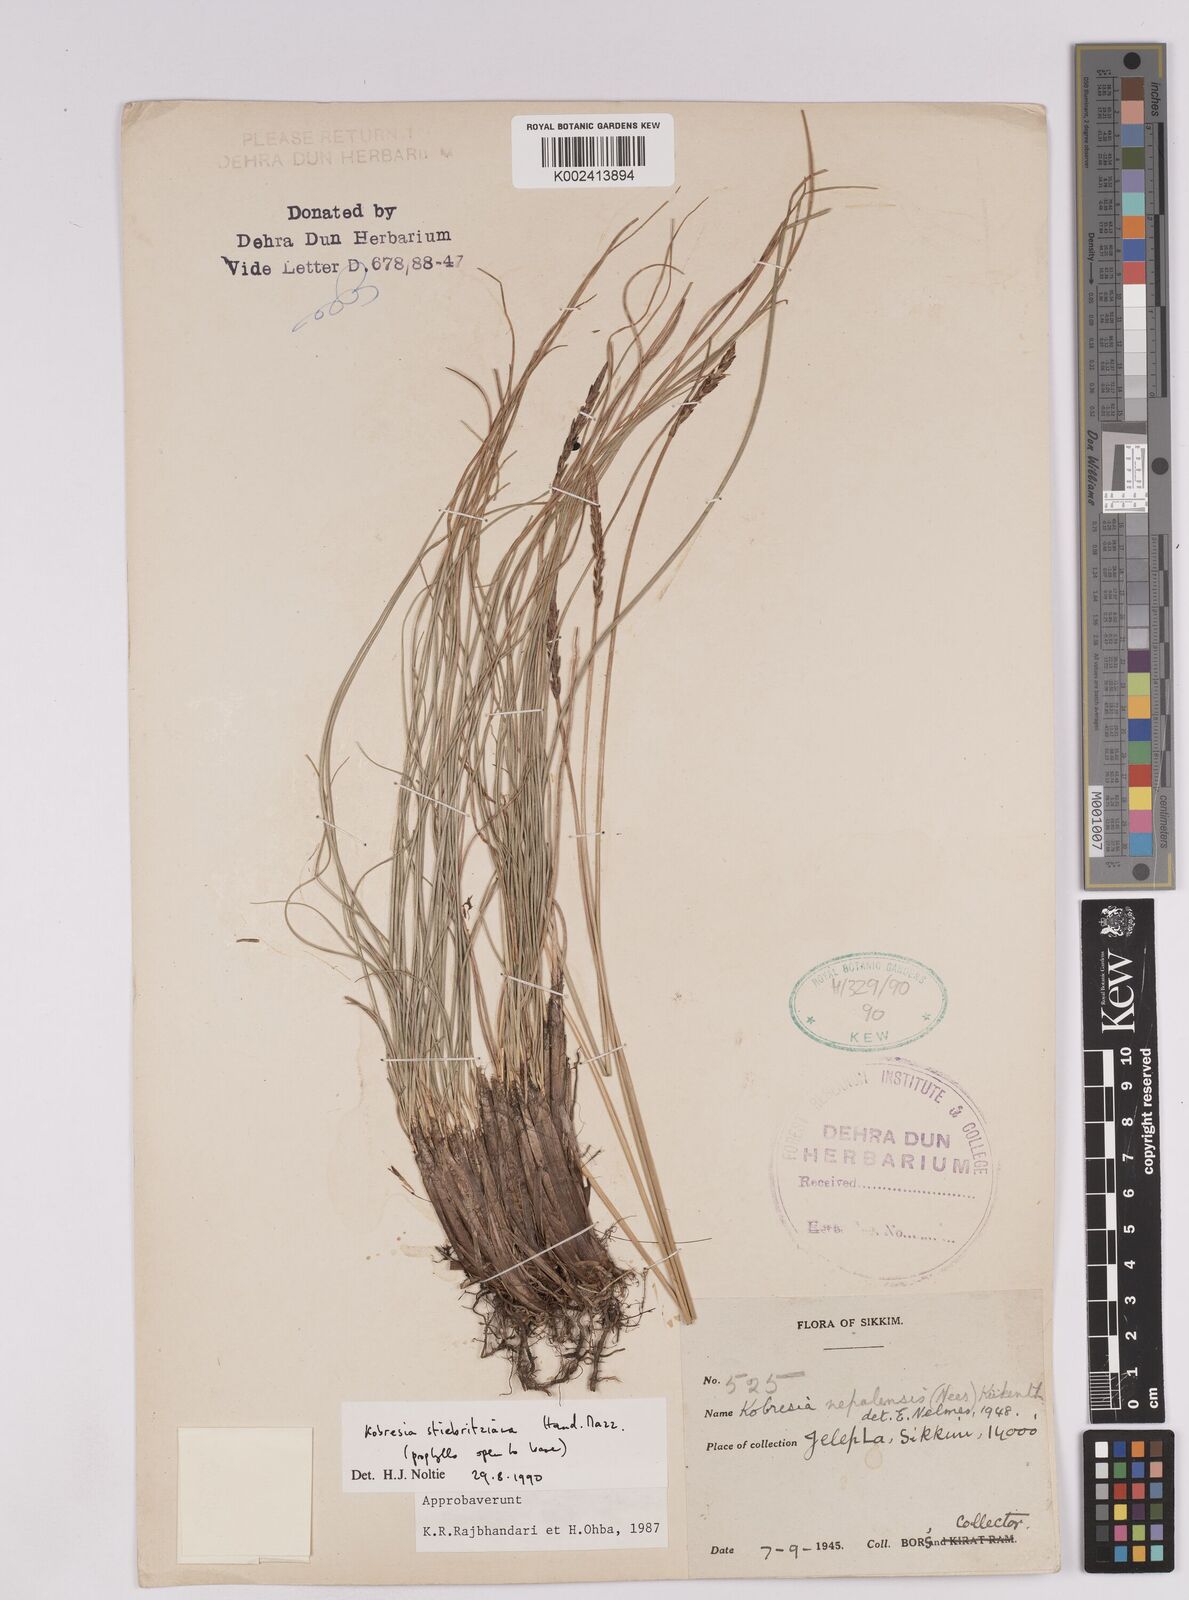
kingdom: Plantae
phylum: Tracheophyta
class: Liliopsida
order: Poales
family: Cyperaceae
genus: Carex
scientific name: Carex cercostachys
